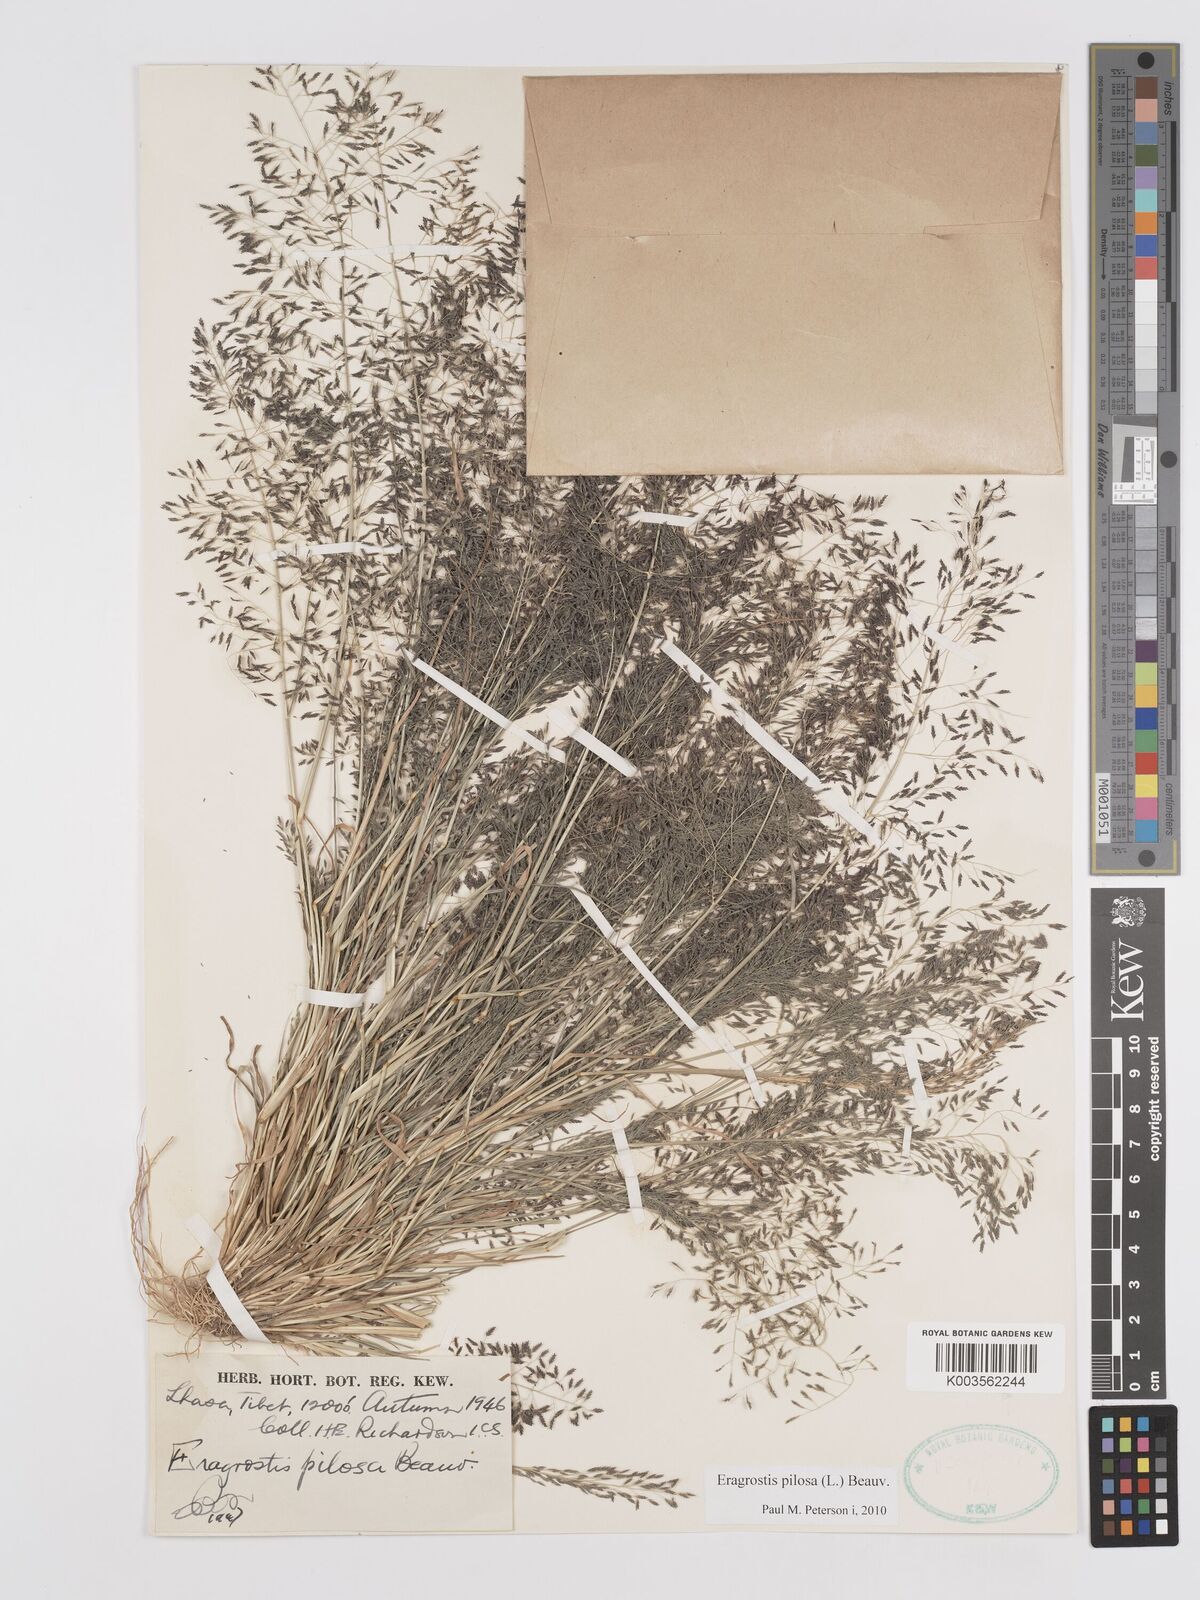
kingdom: Plantae
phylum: Tracheophyta
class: Liliopsida
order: Poales
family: Poaceae
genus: Eragrostis
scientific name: Eragrostis pilosa
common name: Indian lovegrass
